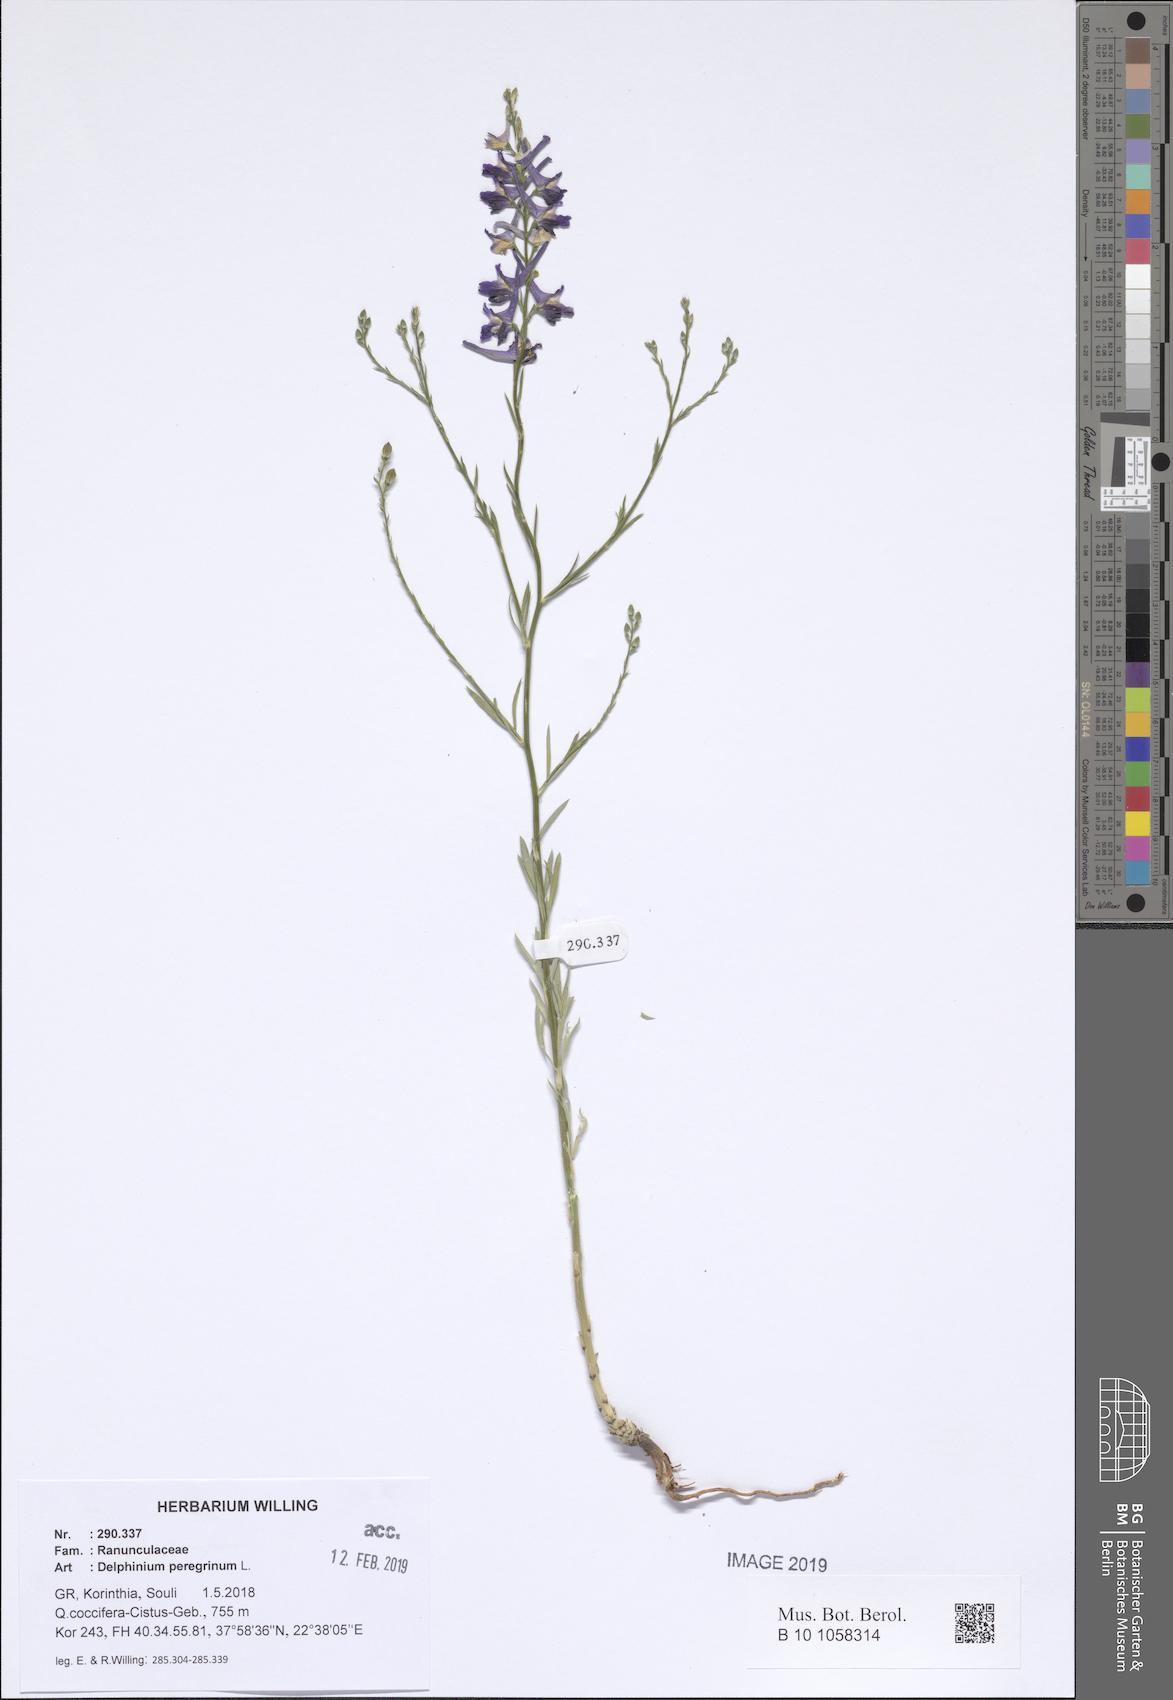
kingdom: Plantae
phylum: Tracheophyta
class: Magnoliopsida
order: Ranunculales
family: Ranunculaceae
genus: Delphinium
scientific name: Delphinium peregrinum
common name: Violet larkspur
